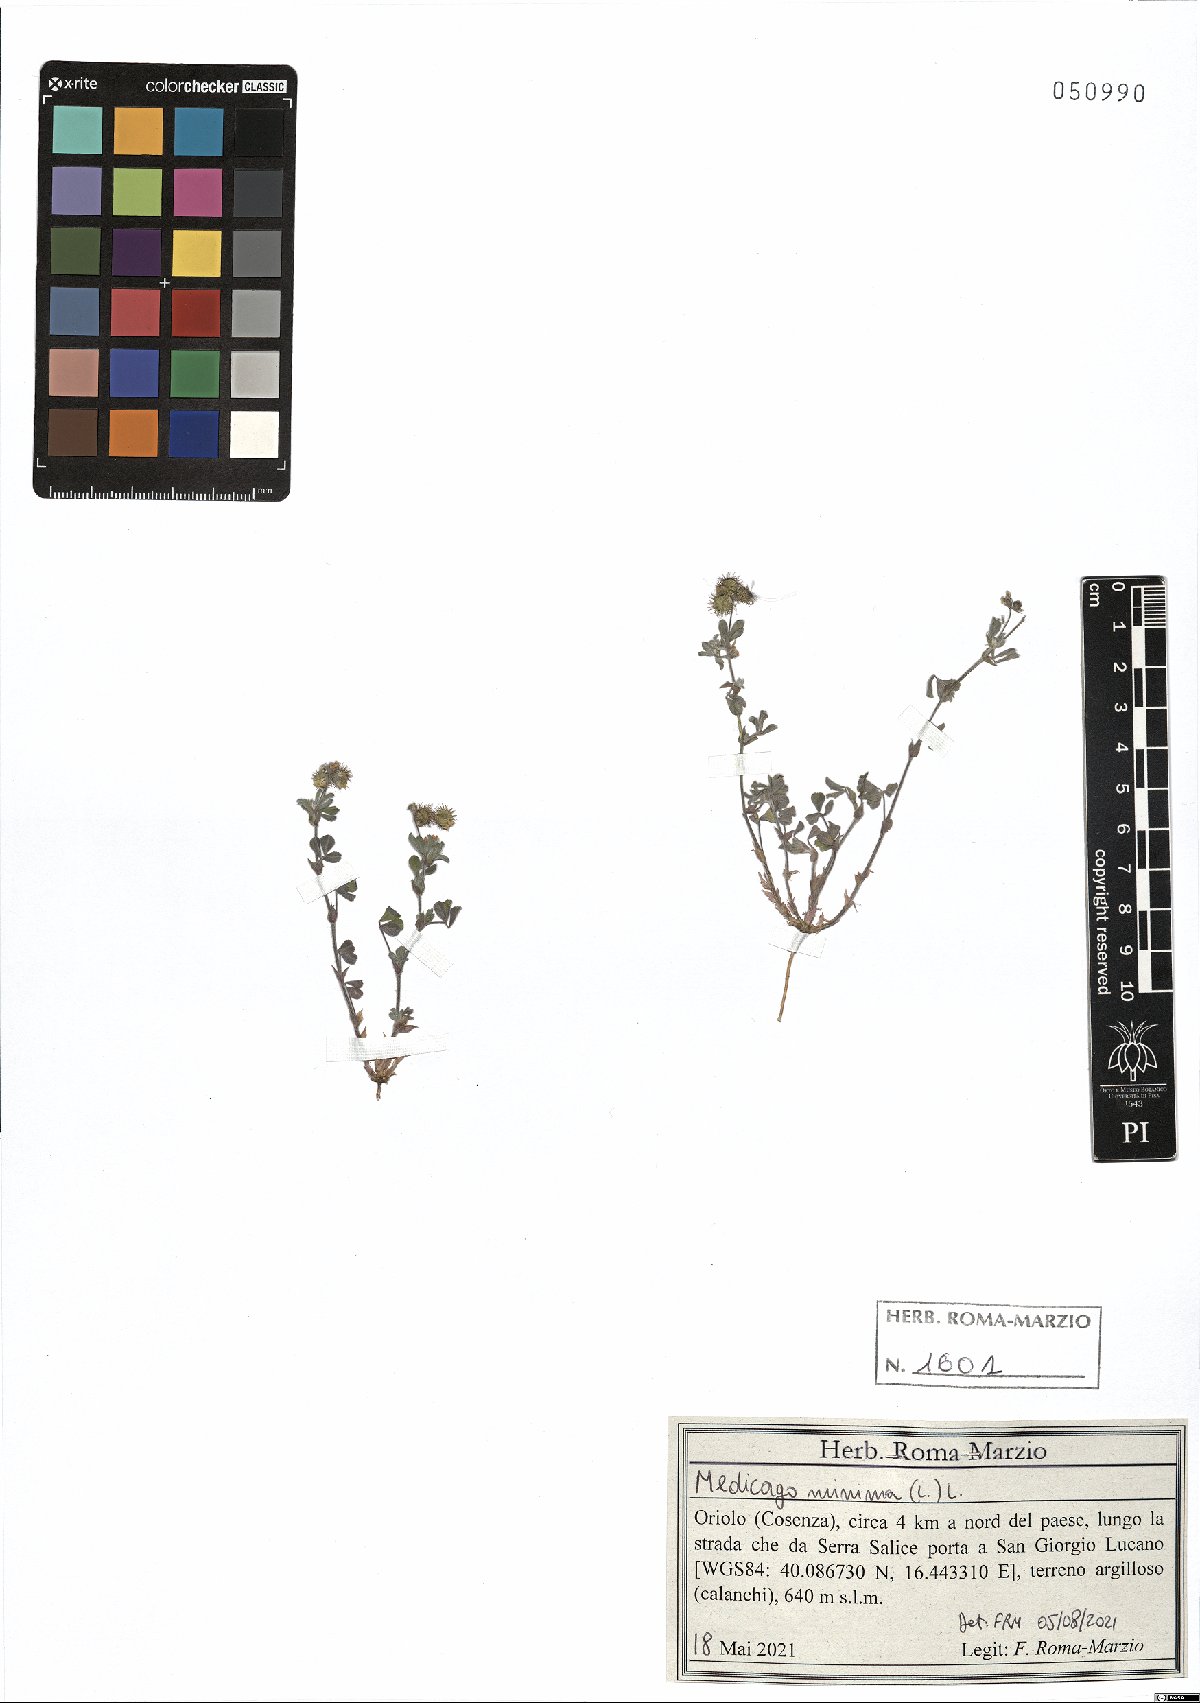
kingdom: Plantae
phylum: Tracheophyta
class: Magnoliopsida
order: Fabales
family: Fabaceae
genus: Medicago
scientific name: Medicago minima
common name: Little bur-clover
